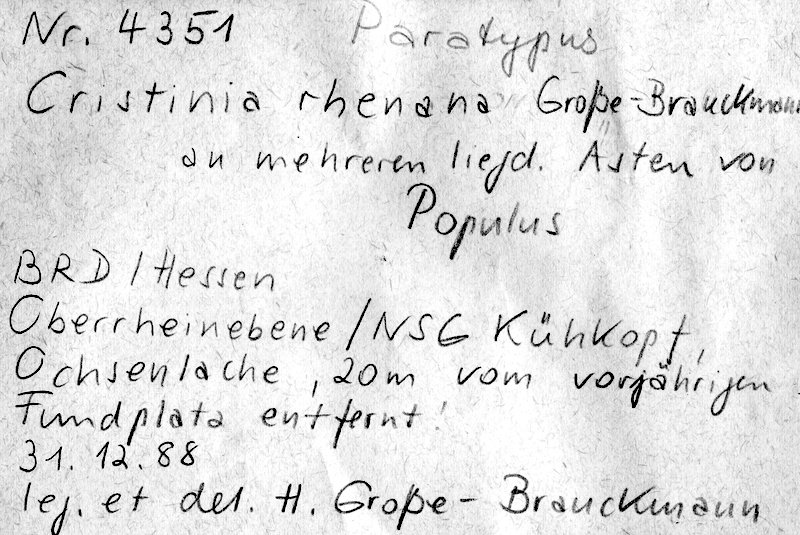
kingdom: Fungi
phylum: Basidiomycota
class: Agaricomycetes
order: Agaricales
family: Stephanosporaceae
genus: Cristinia
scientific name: Cristinia rhenana
